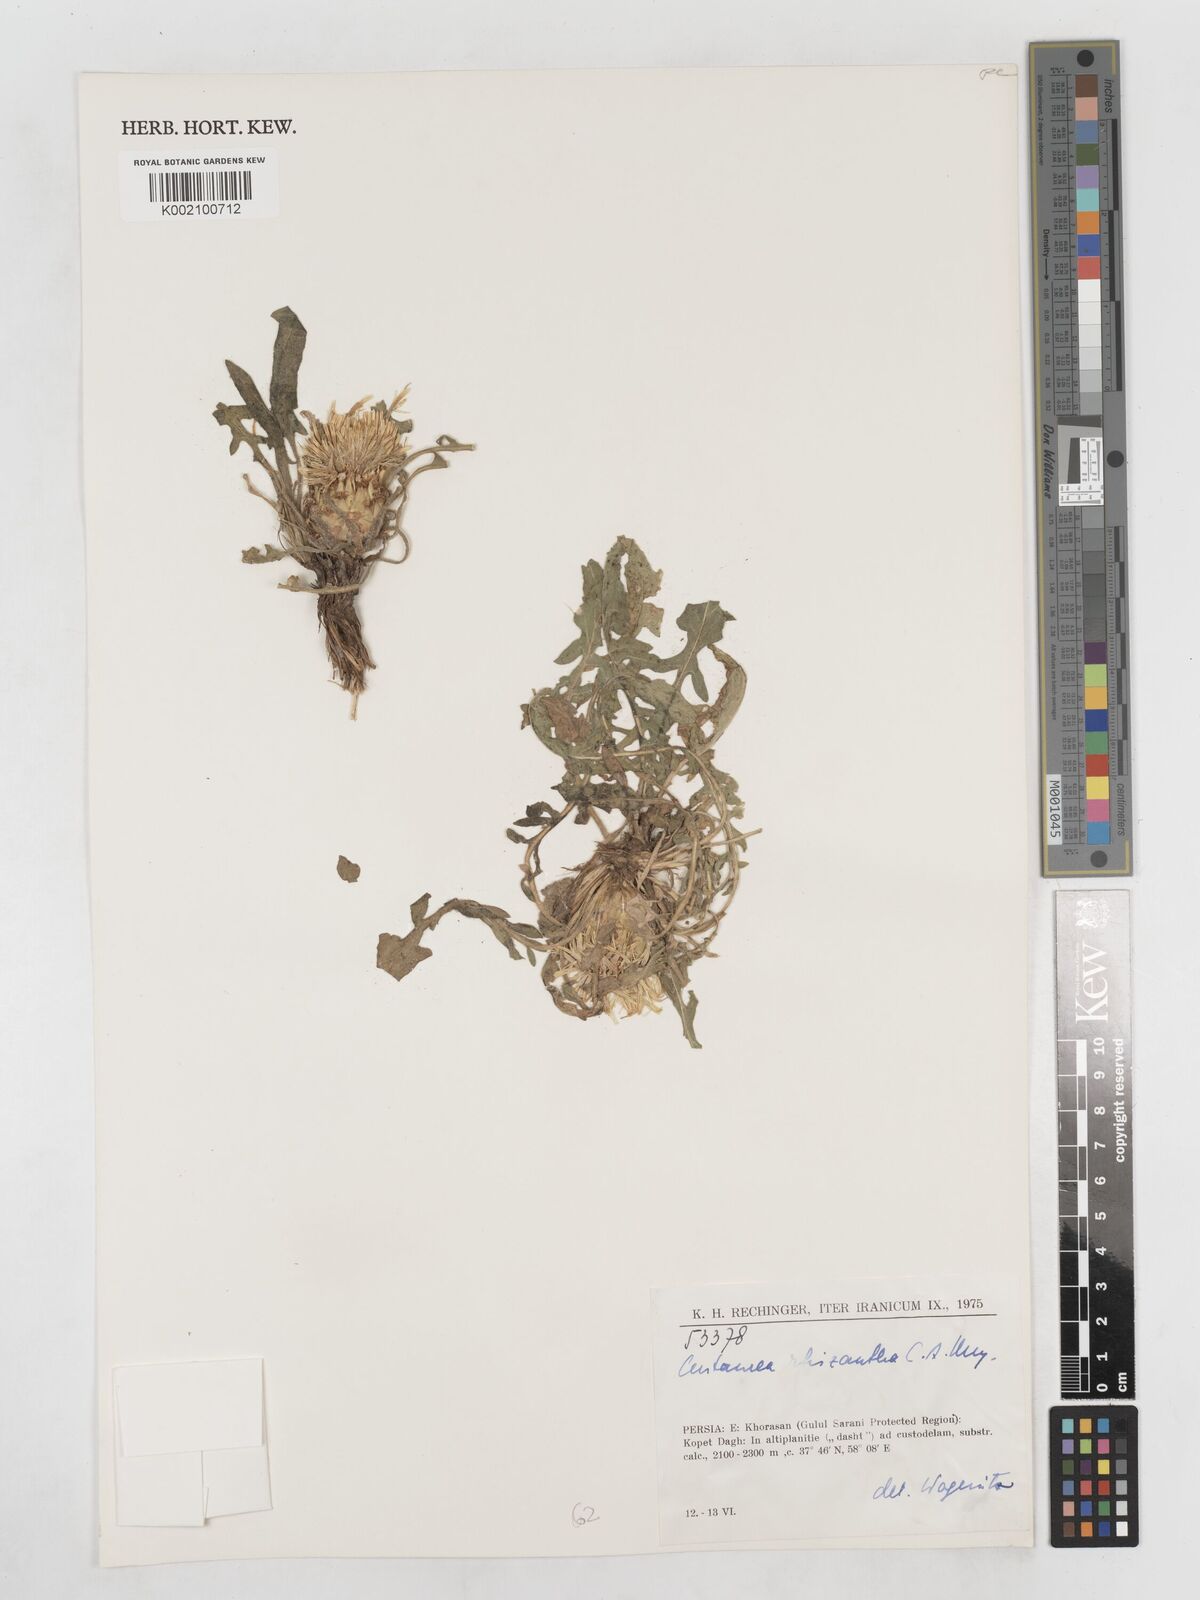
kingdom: Plantae
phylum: Tracheophyta
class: Magnoliopsida
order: Asterales
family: Asteraceae
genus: Centaurea
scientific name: Centaurea rhizantha
